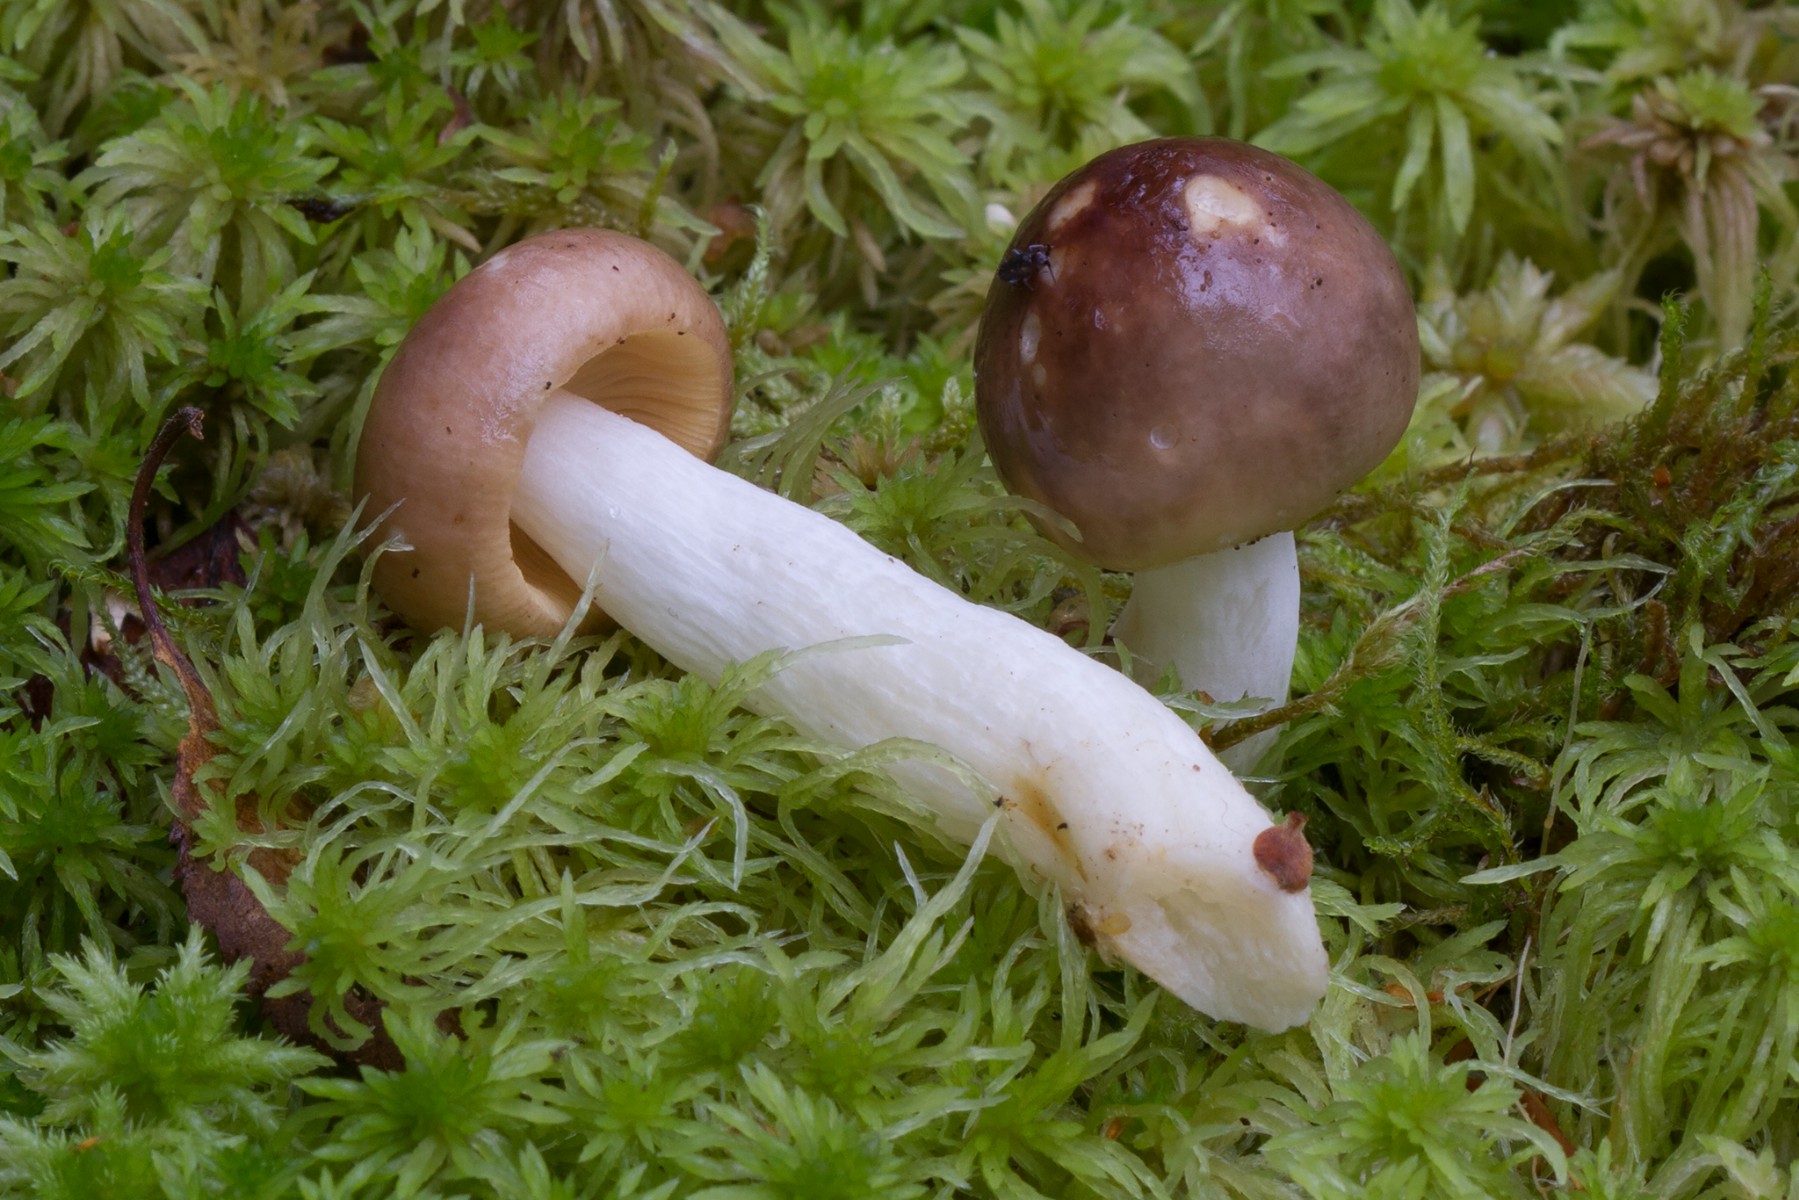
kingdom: Fungi
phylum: Basidiomycota
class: Agaricomycetes
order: Russulales
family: Russulaceae
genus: Russula
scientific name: Russula versicolor
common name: foranderlig skørhat
